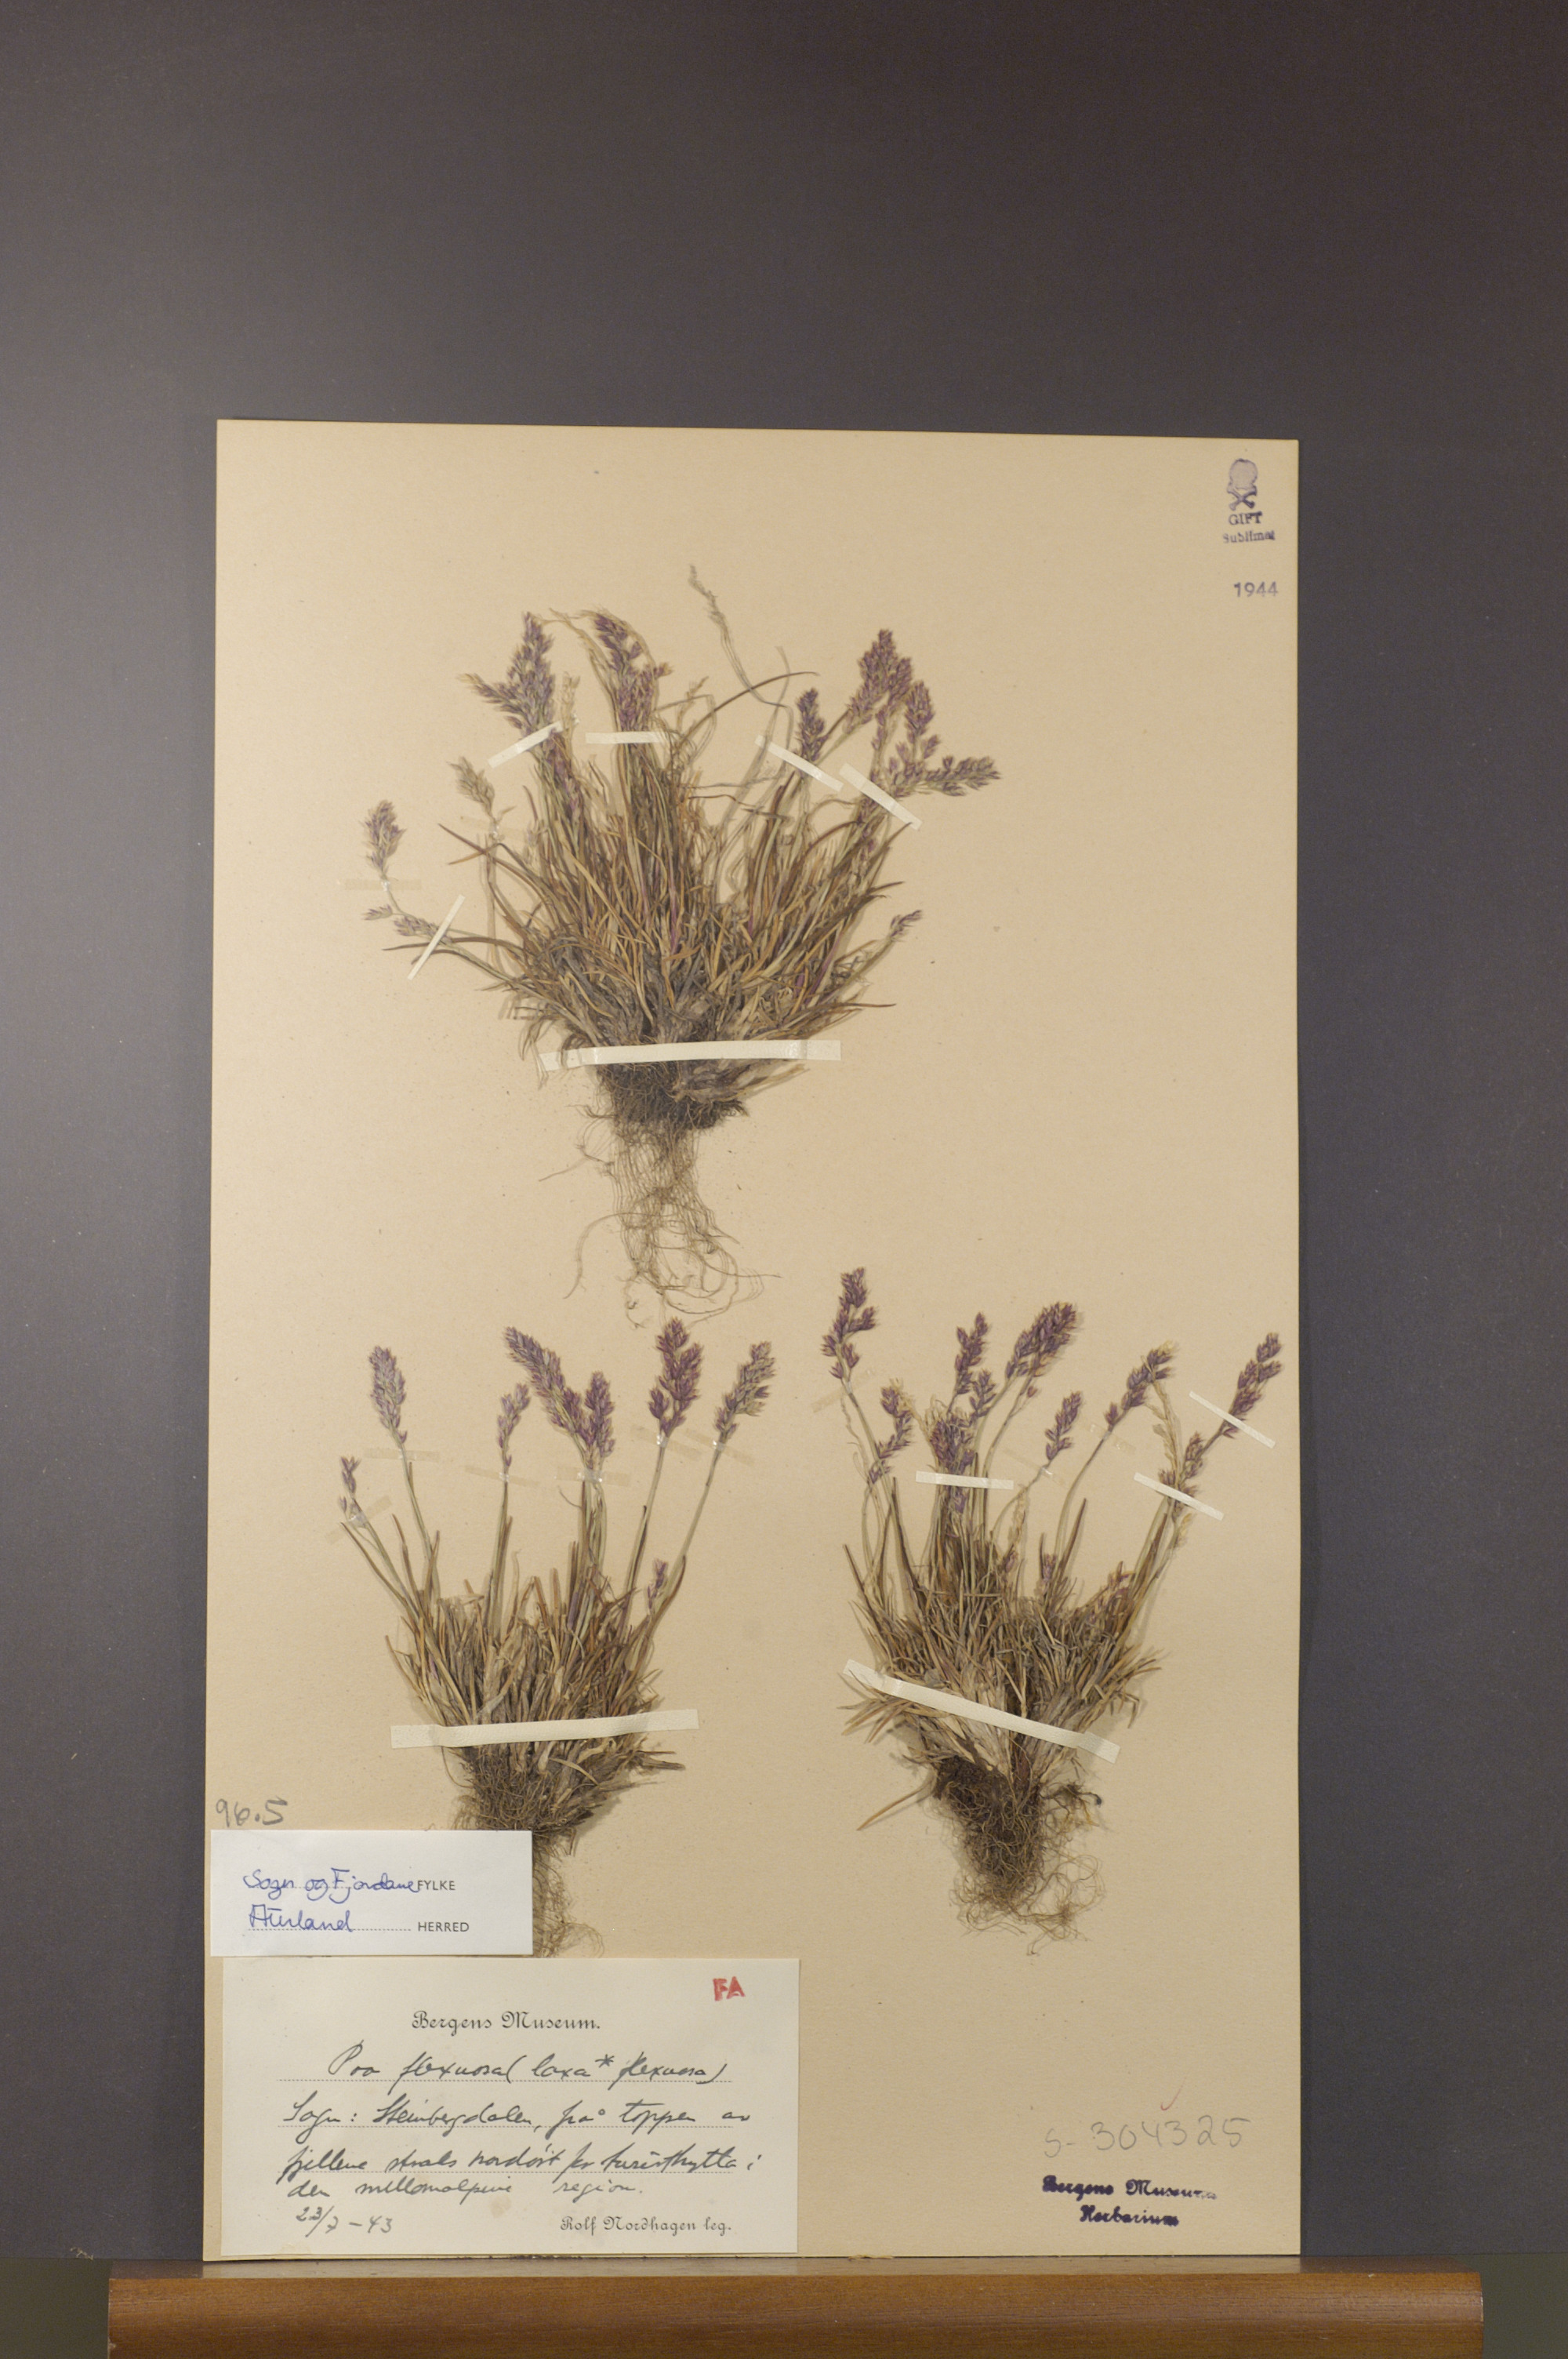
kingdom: Plantae
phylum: Tracheophyta
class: Liliopsida
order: Poales
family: Poaceae
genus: Poa
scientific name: Poa flexuosa
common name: Wavy meadow-grass
